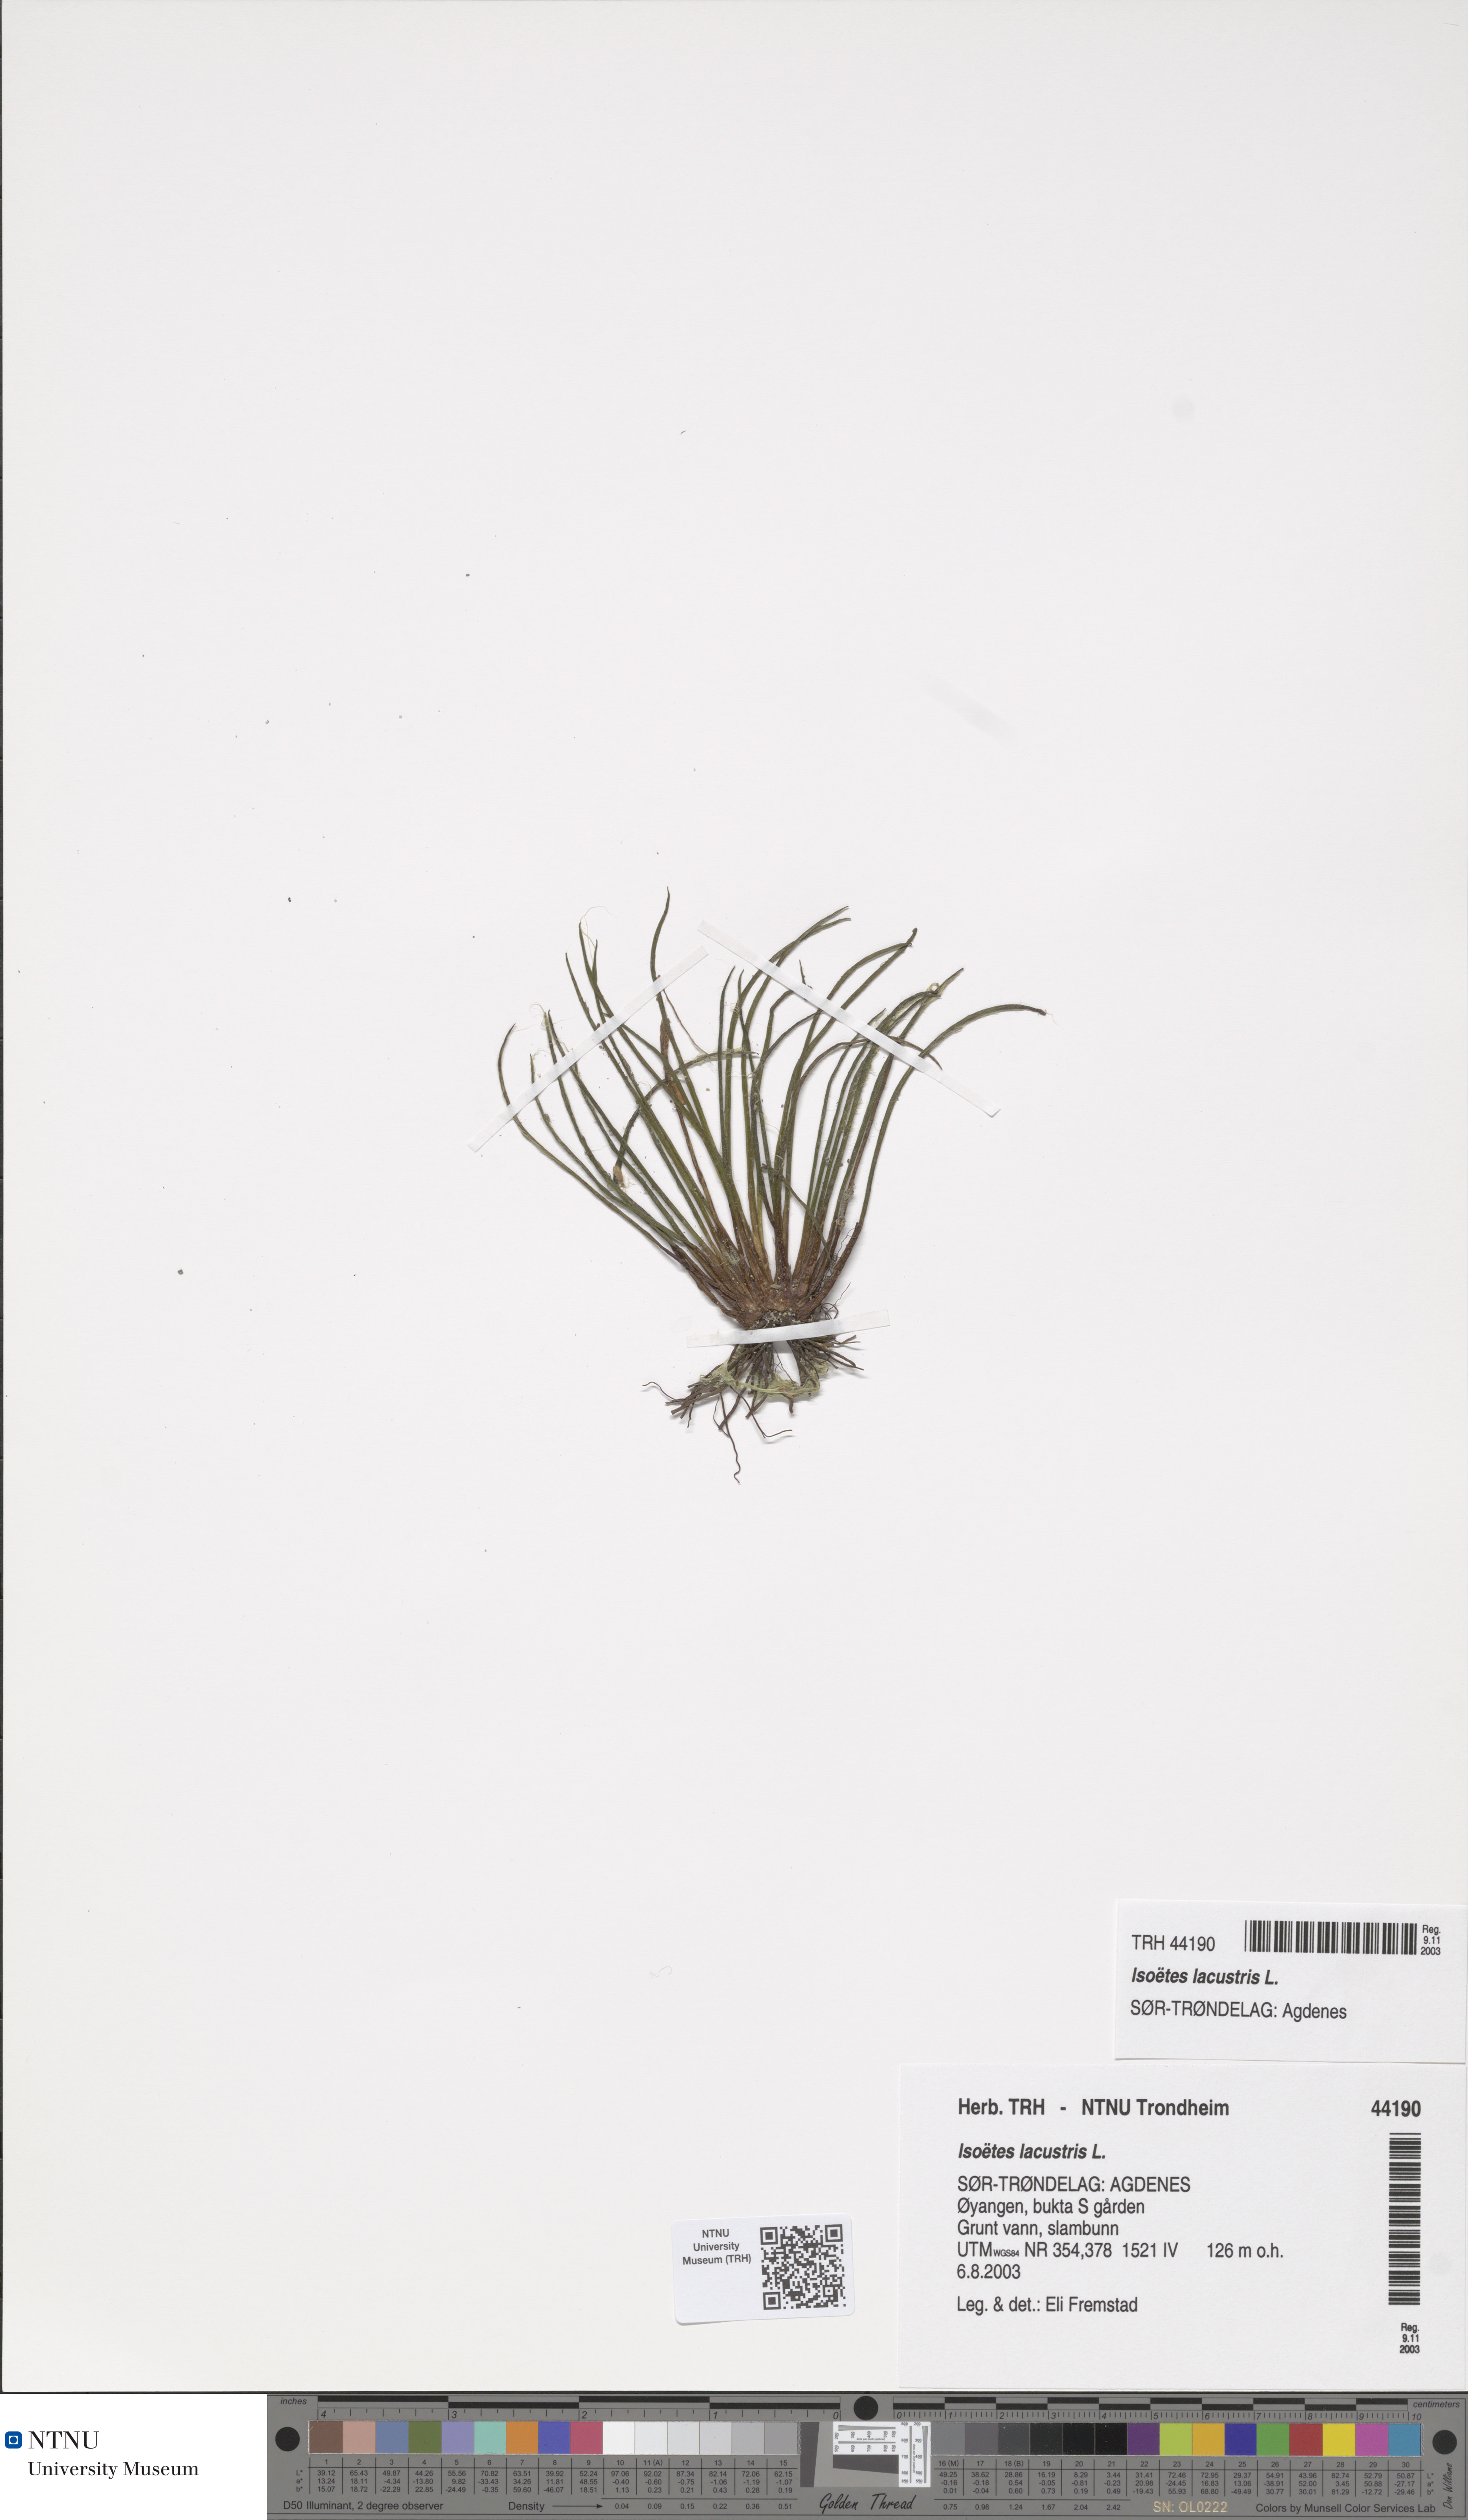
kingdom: Plantae
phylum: Tracheophyta
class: Lycopodiopsida
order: Isoetales
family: Isoetaceae
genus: Isoetes
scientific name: Isoetes lacustris
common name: Common quillwort
